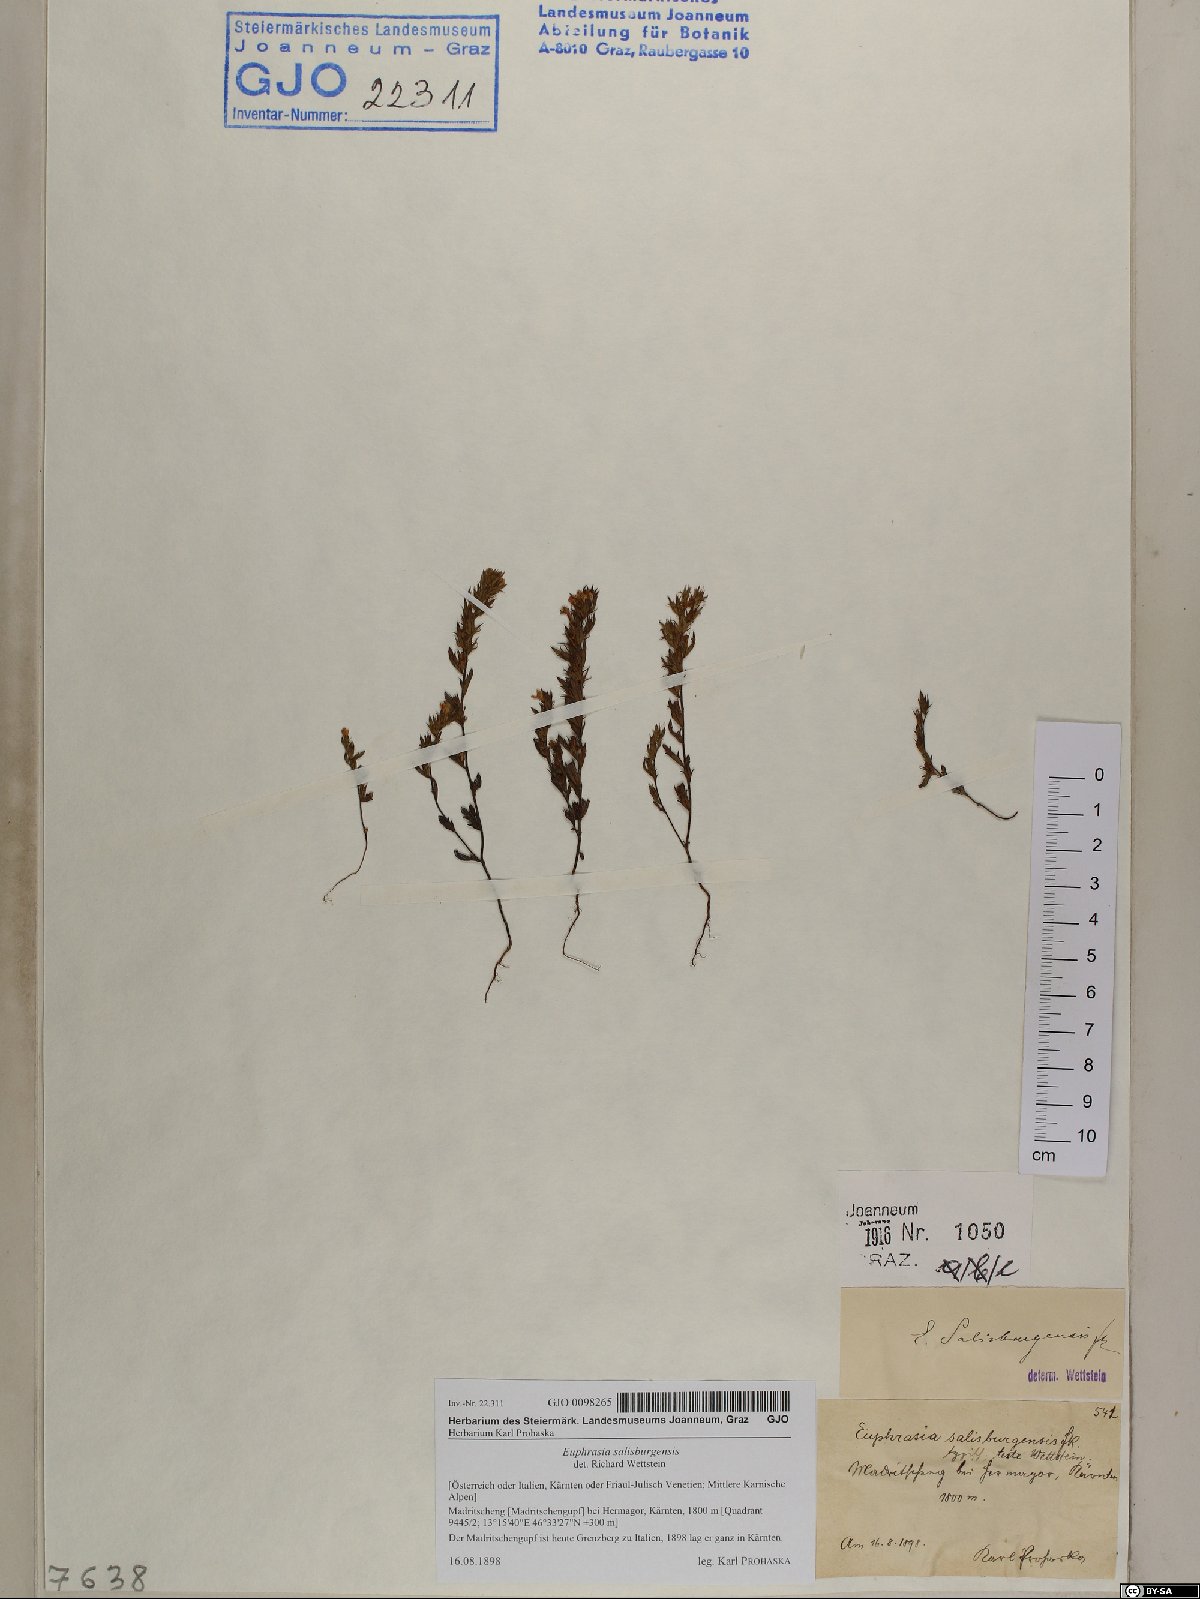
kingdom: Plantae
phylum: Tracheophyta
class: Magnoliopsida
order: Lamiales
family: Orobanchaceae
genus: Euphrasia
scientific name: Euphrasia salisburgensis
